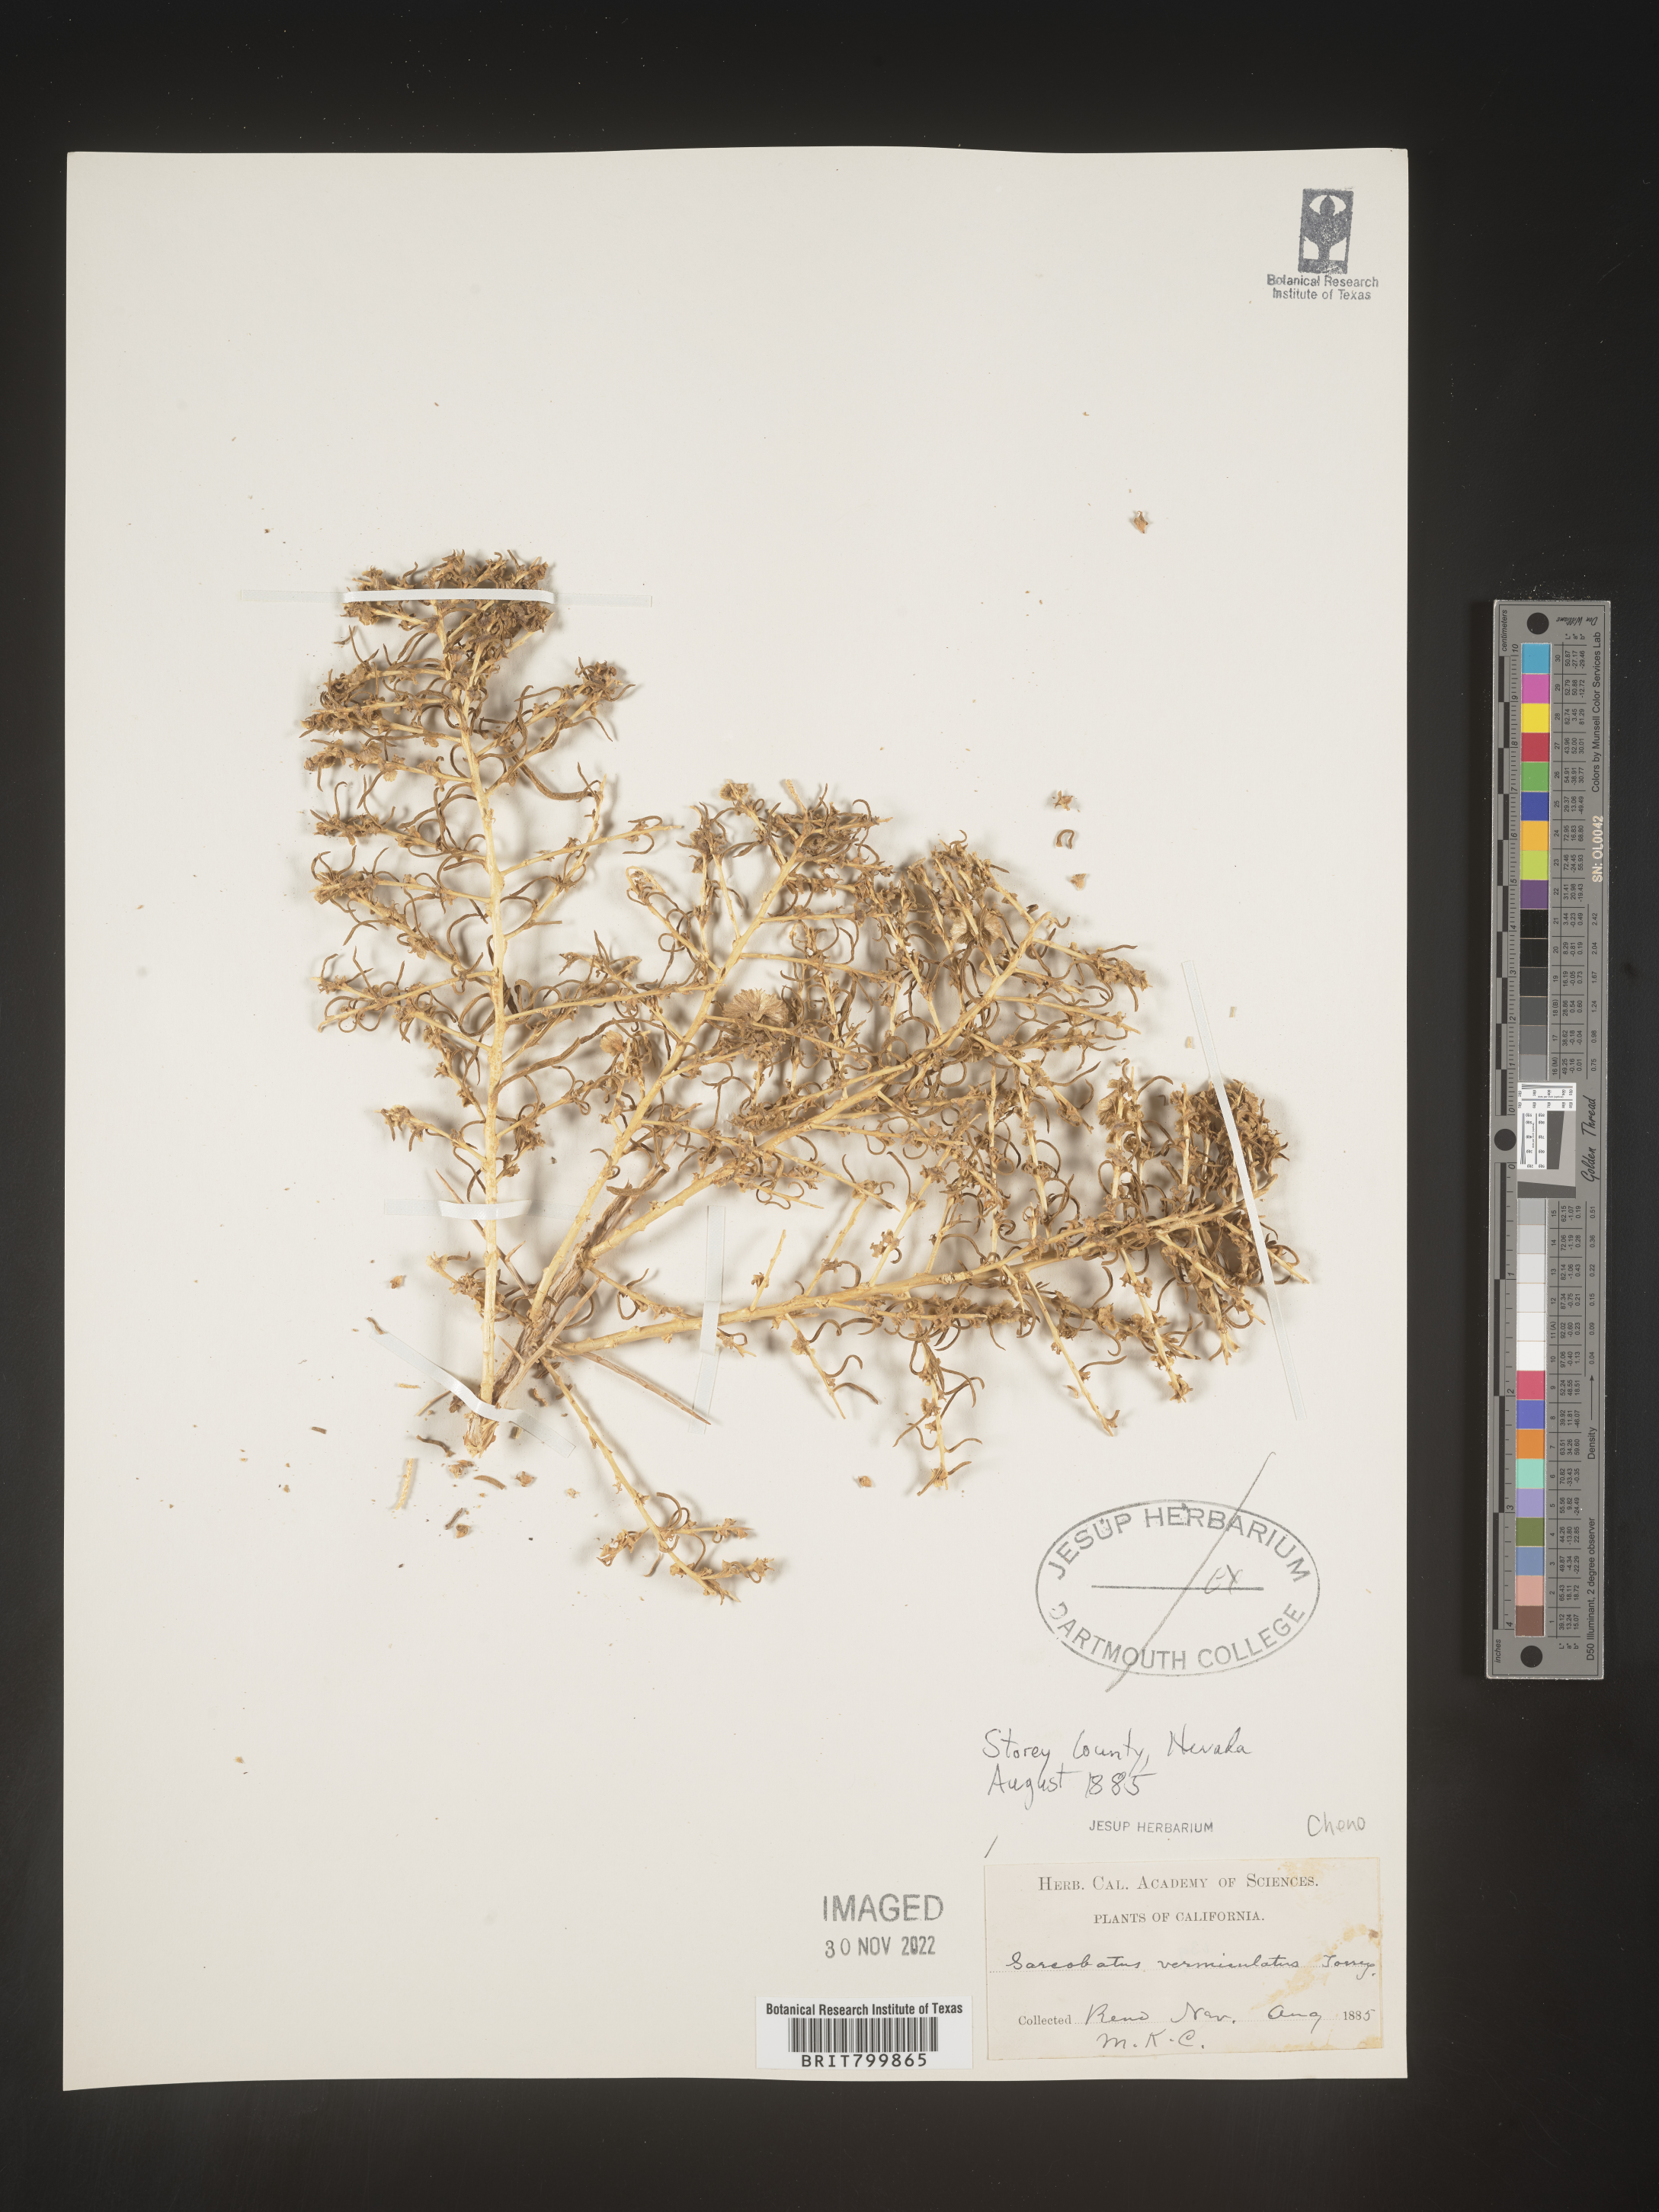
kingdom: Plantae
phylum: Tracheophyta
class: Magnoliopsida
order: Caryophyllales
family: Sarcobataceae
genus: Sarcobatus
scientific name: Sarcobatus vermiculatus
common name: Greasewood
